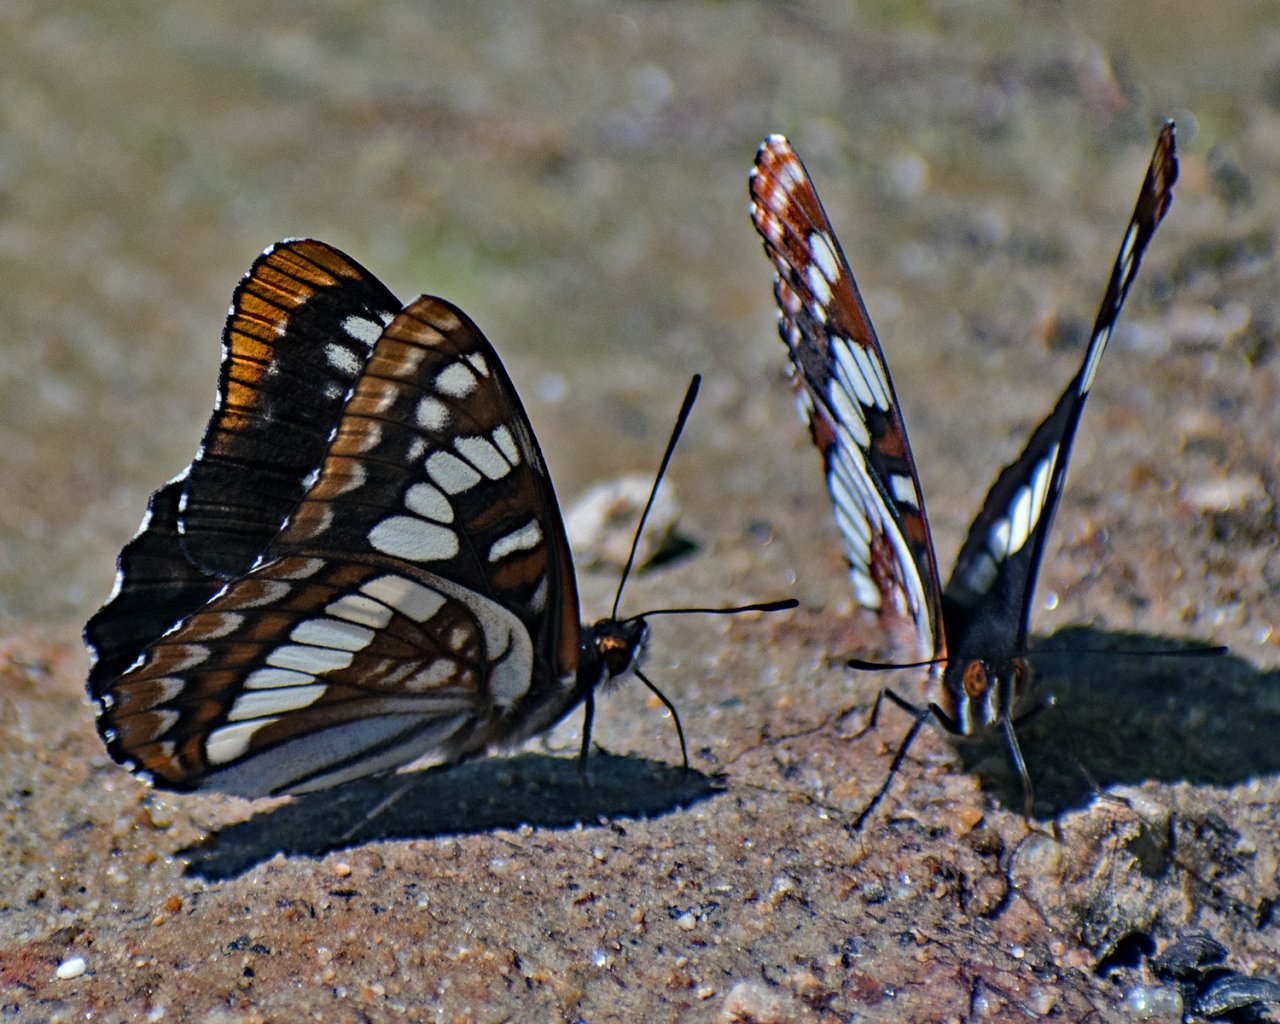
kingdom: Animalia
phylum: Arthropoda
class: Insecta
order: Lepidoptera
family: Nymphalidae
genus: Limenitis
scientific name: Limenitis lorquini
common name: Lorquin's Admiral
